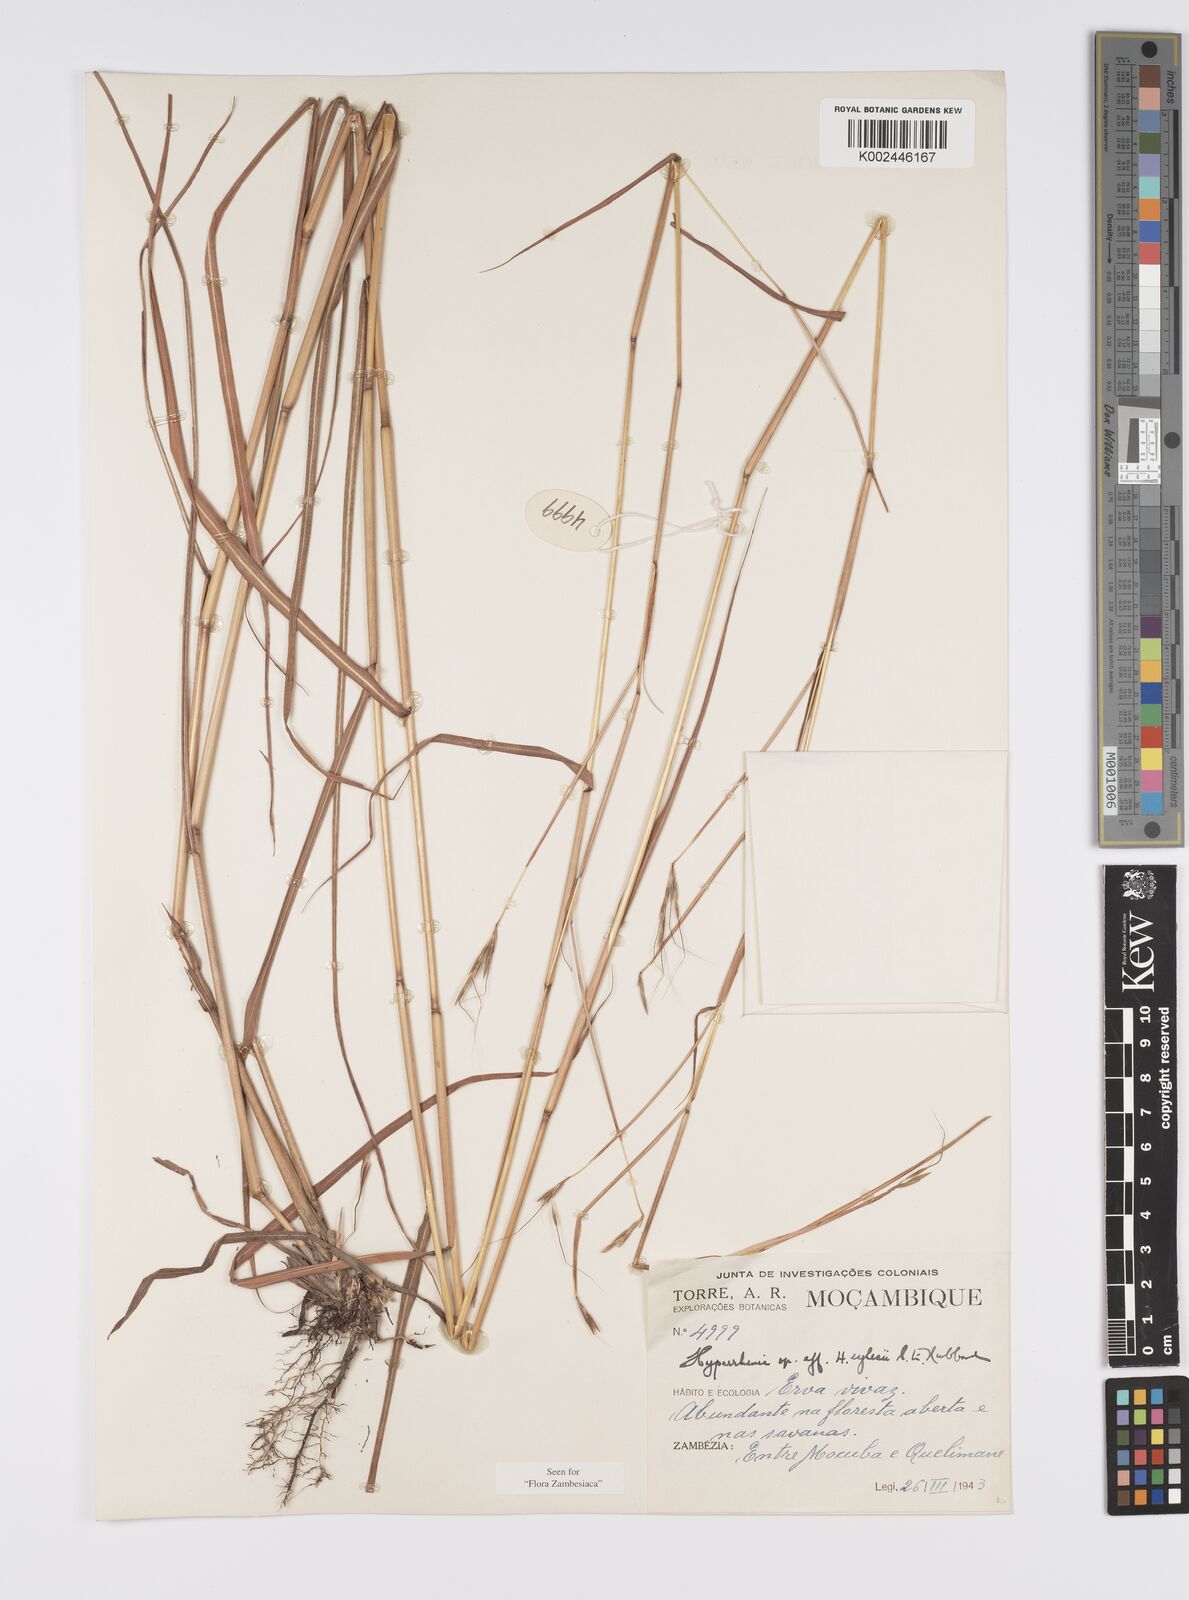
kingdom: Plantae
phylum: Tracheophyta
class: Liliopsida
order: Poales
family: Poaceae
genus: Elymandra
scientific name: Elymandra grallata
